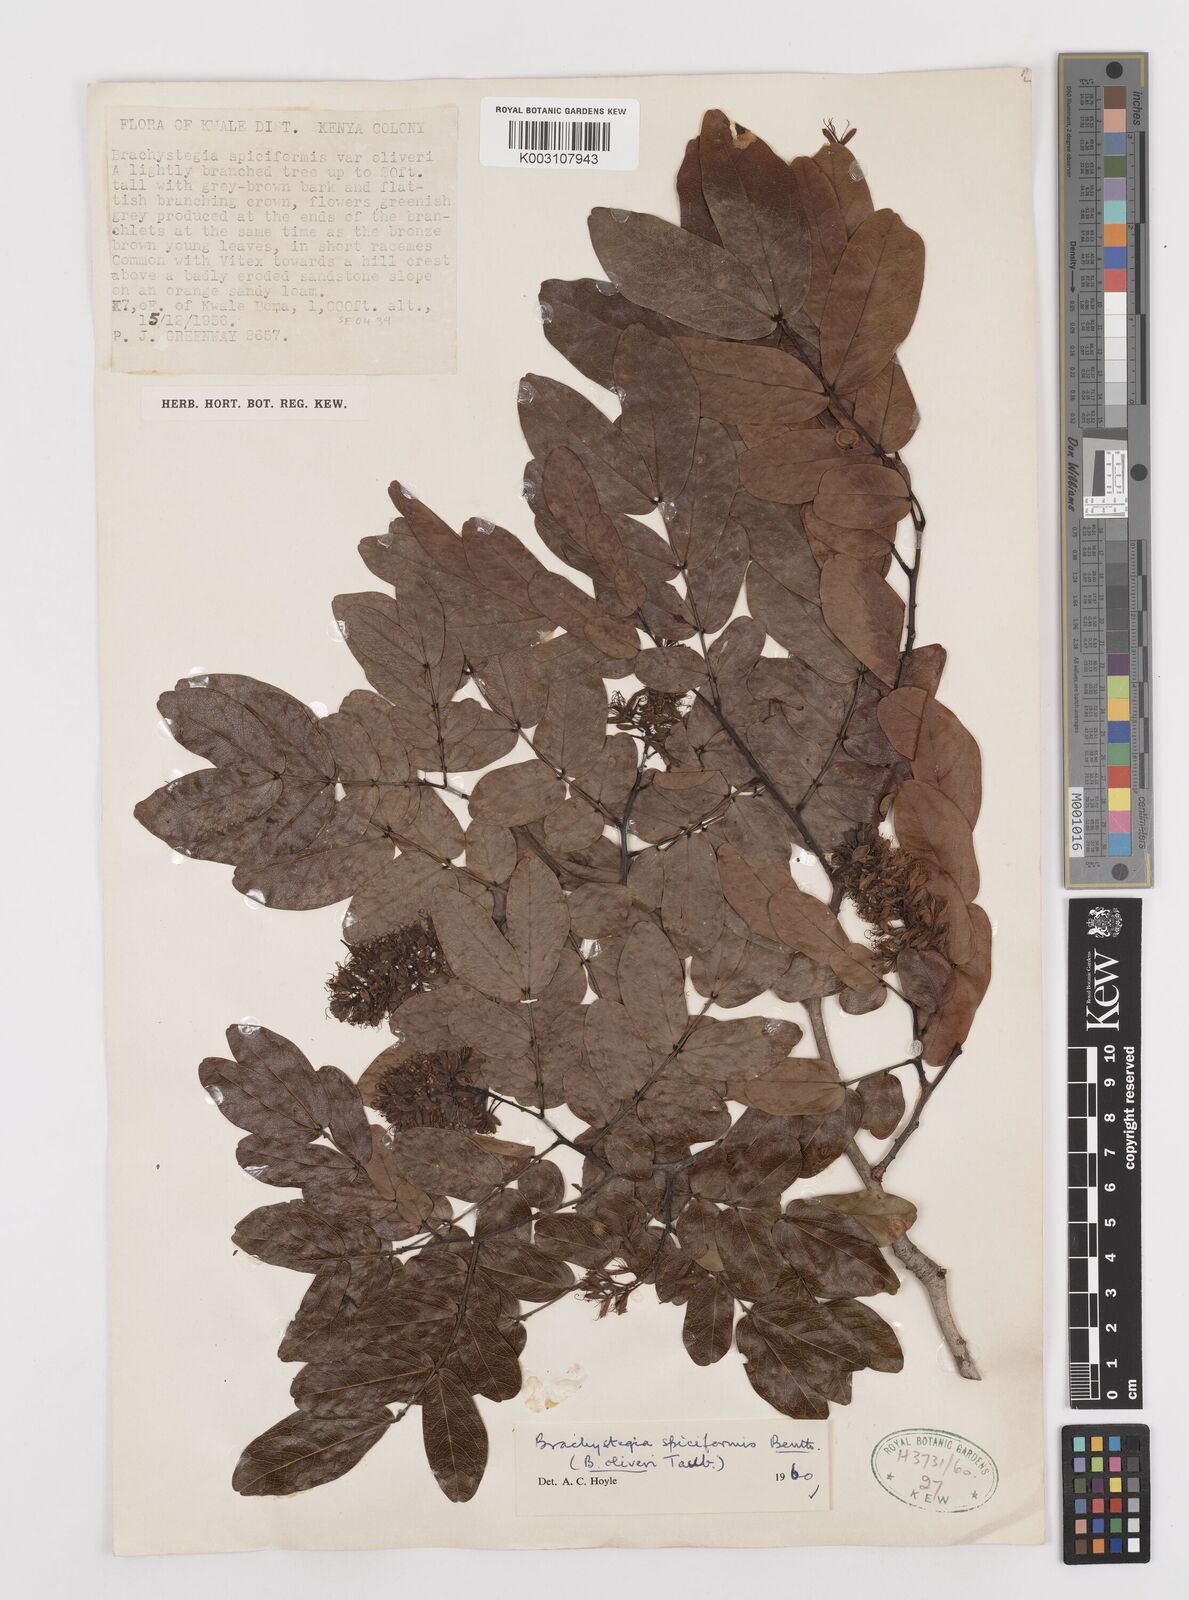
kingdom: Plantae
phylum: Tracheophyta
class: Magnoliopsida
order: Fabales
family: Fabaceae
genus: Brachystegia
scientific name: Brachystegia spiciformis
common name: Zebrawood
